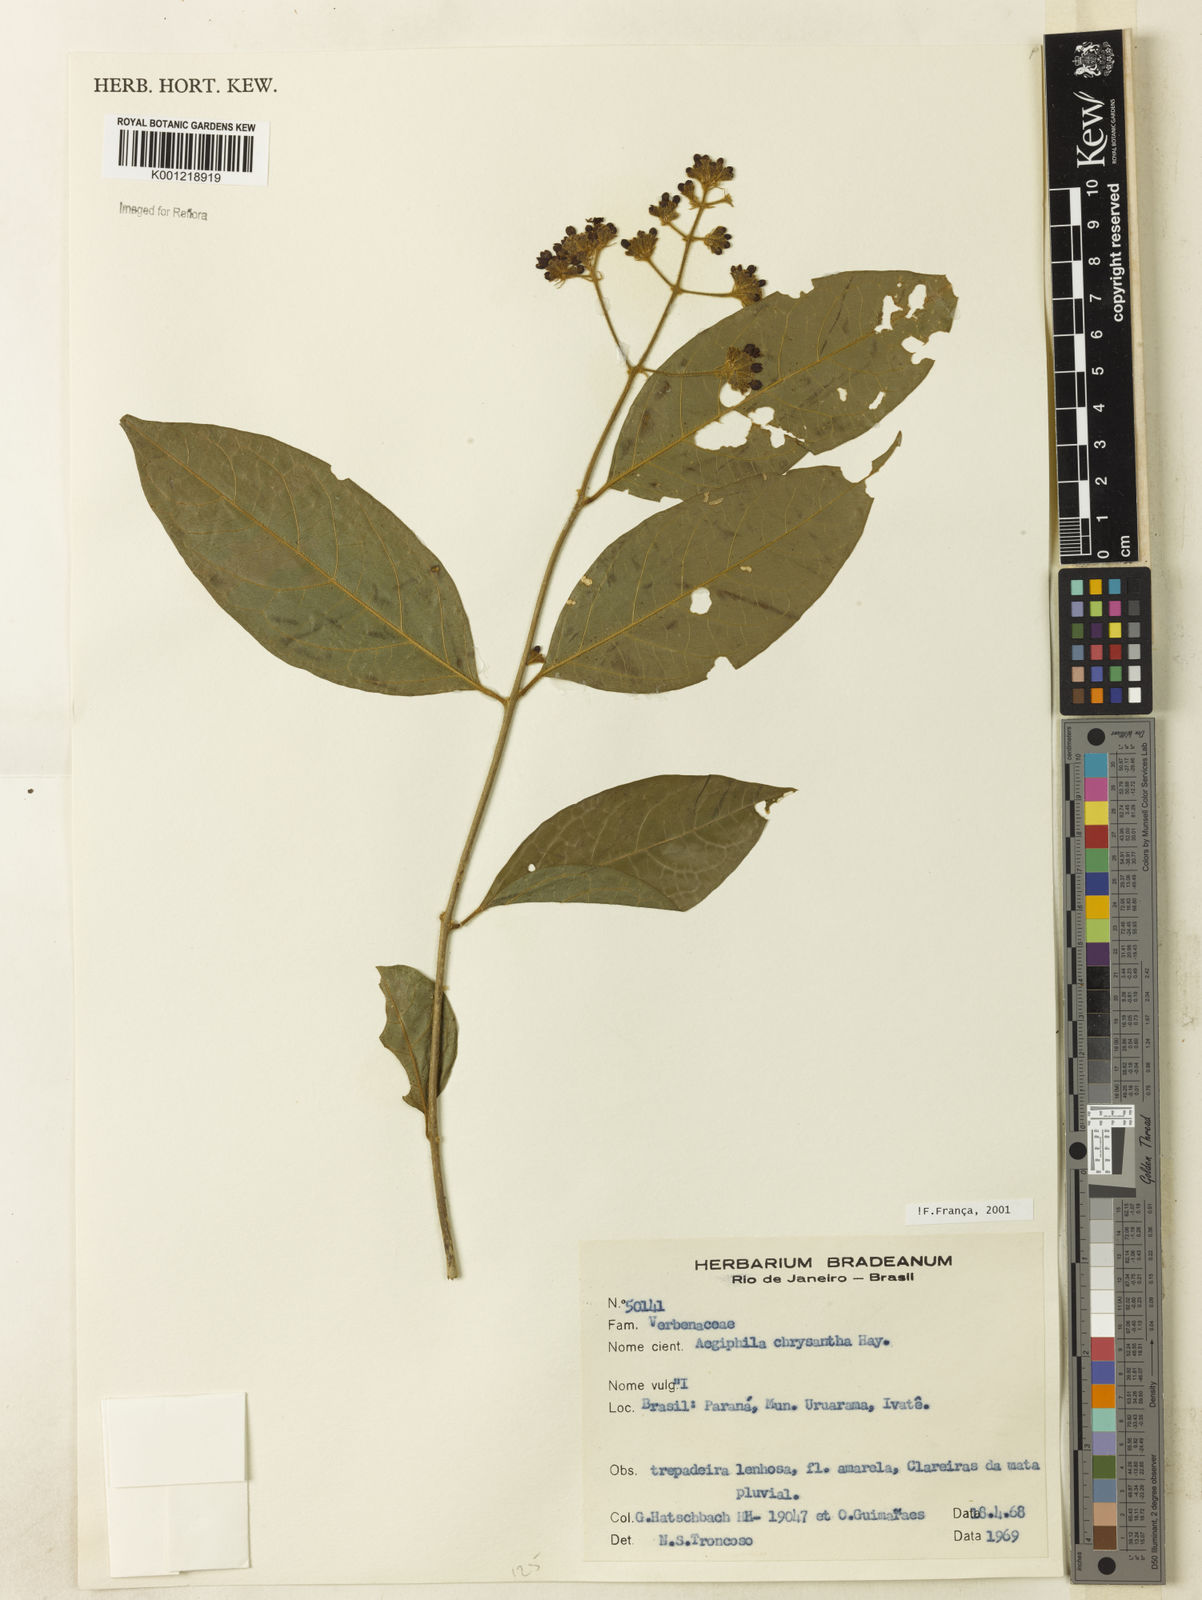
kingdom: Plantae
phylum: Tracheophyta
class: Magnoliopsida
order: Lamiales
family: Lamiaceae
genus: Aegiphila
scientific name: Aegiphila vitelliniflora
